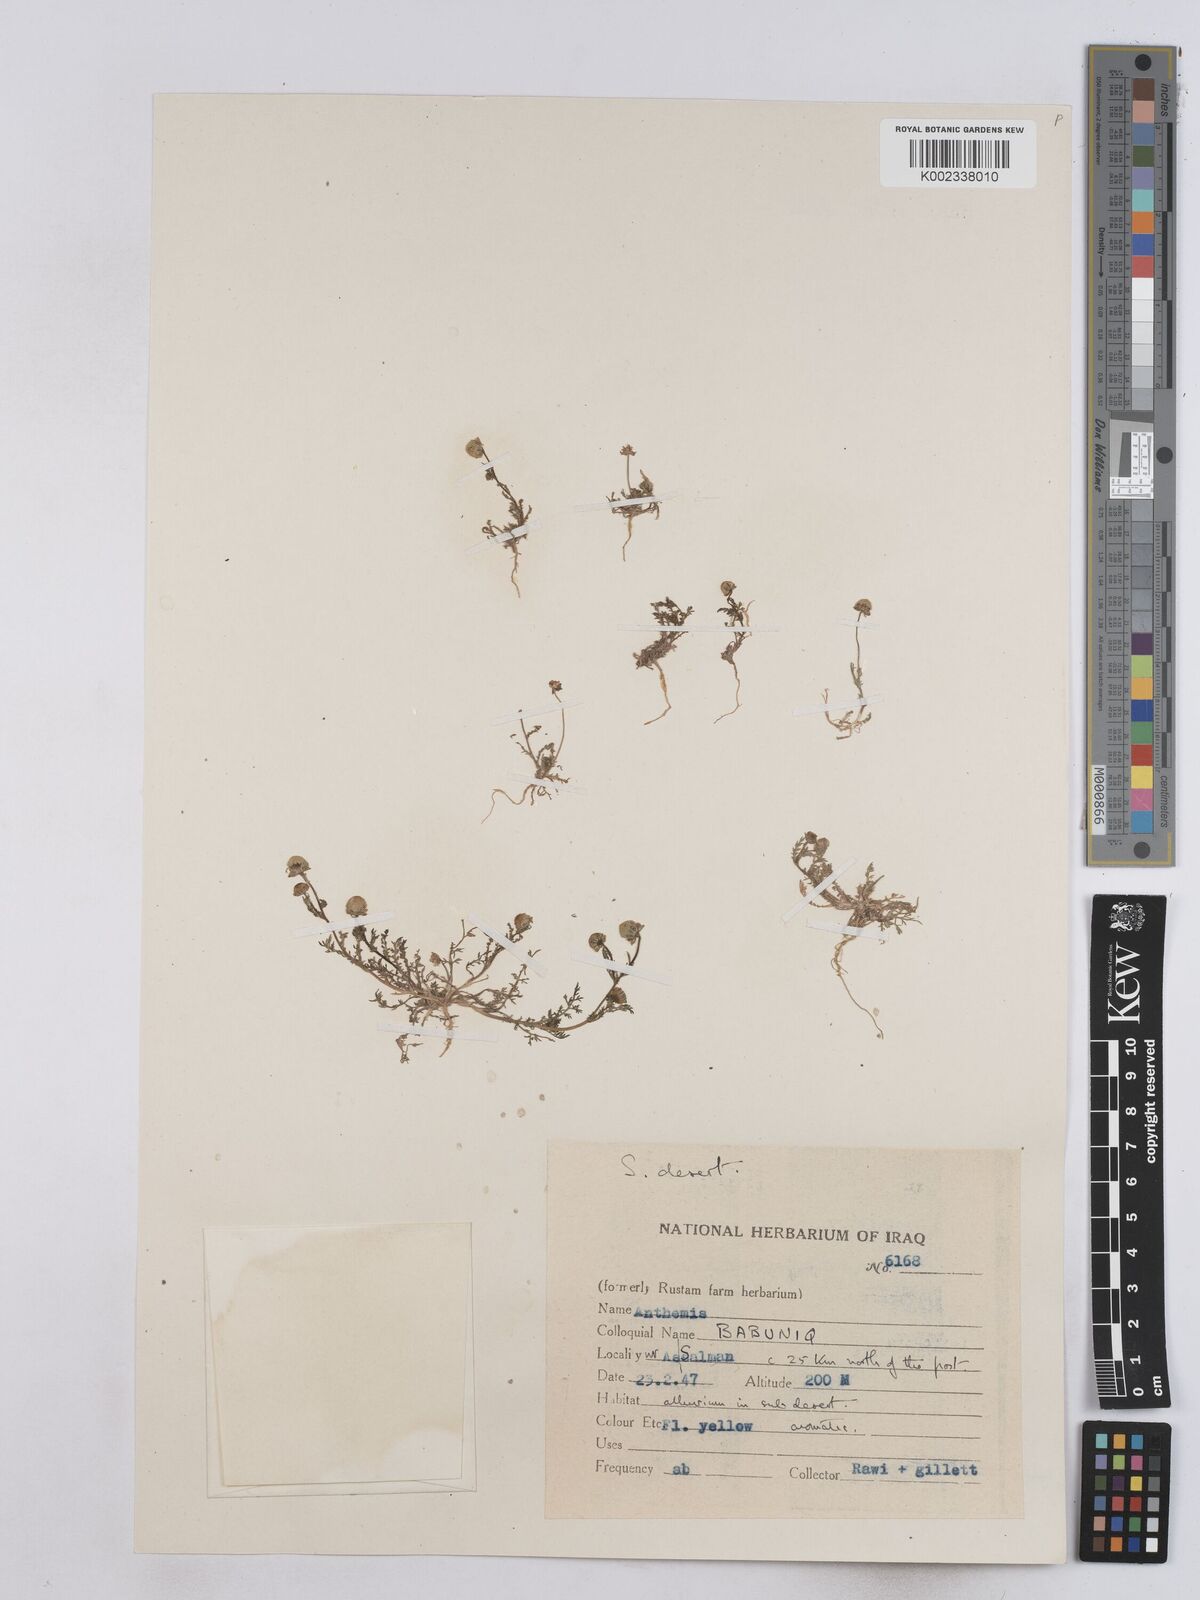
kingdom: Plantae
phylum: Tracheophyta
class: Magnoliopsida
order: Asterales
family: Asteraceae
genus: Matricaria
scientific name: Matricaria aurea
